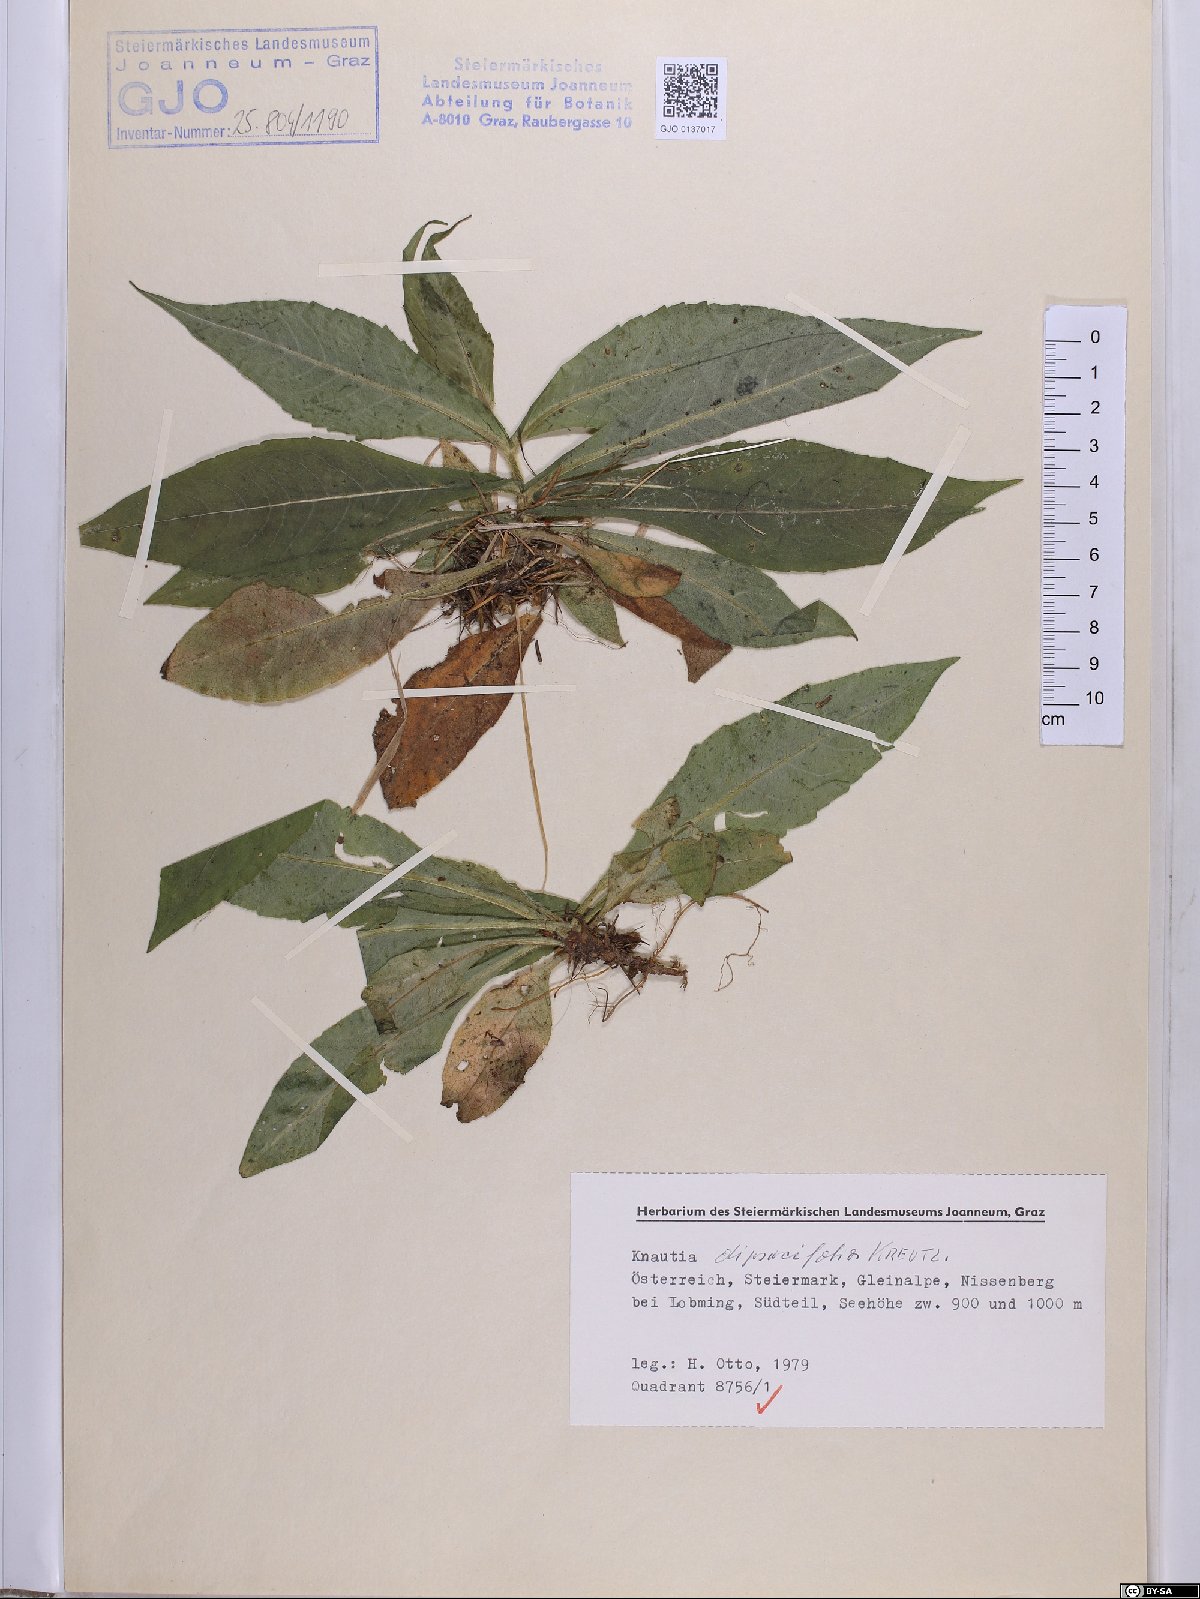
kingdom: Plantae
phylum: Tracheophyta
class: Magnoliopsida
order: Dipsacales
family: Caprifoliaceae
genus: Knautia
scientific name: Knautia dipsacifolia
